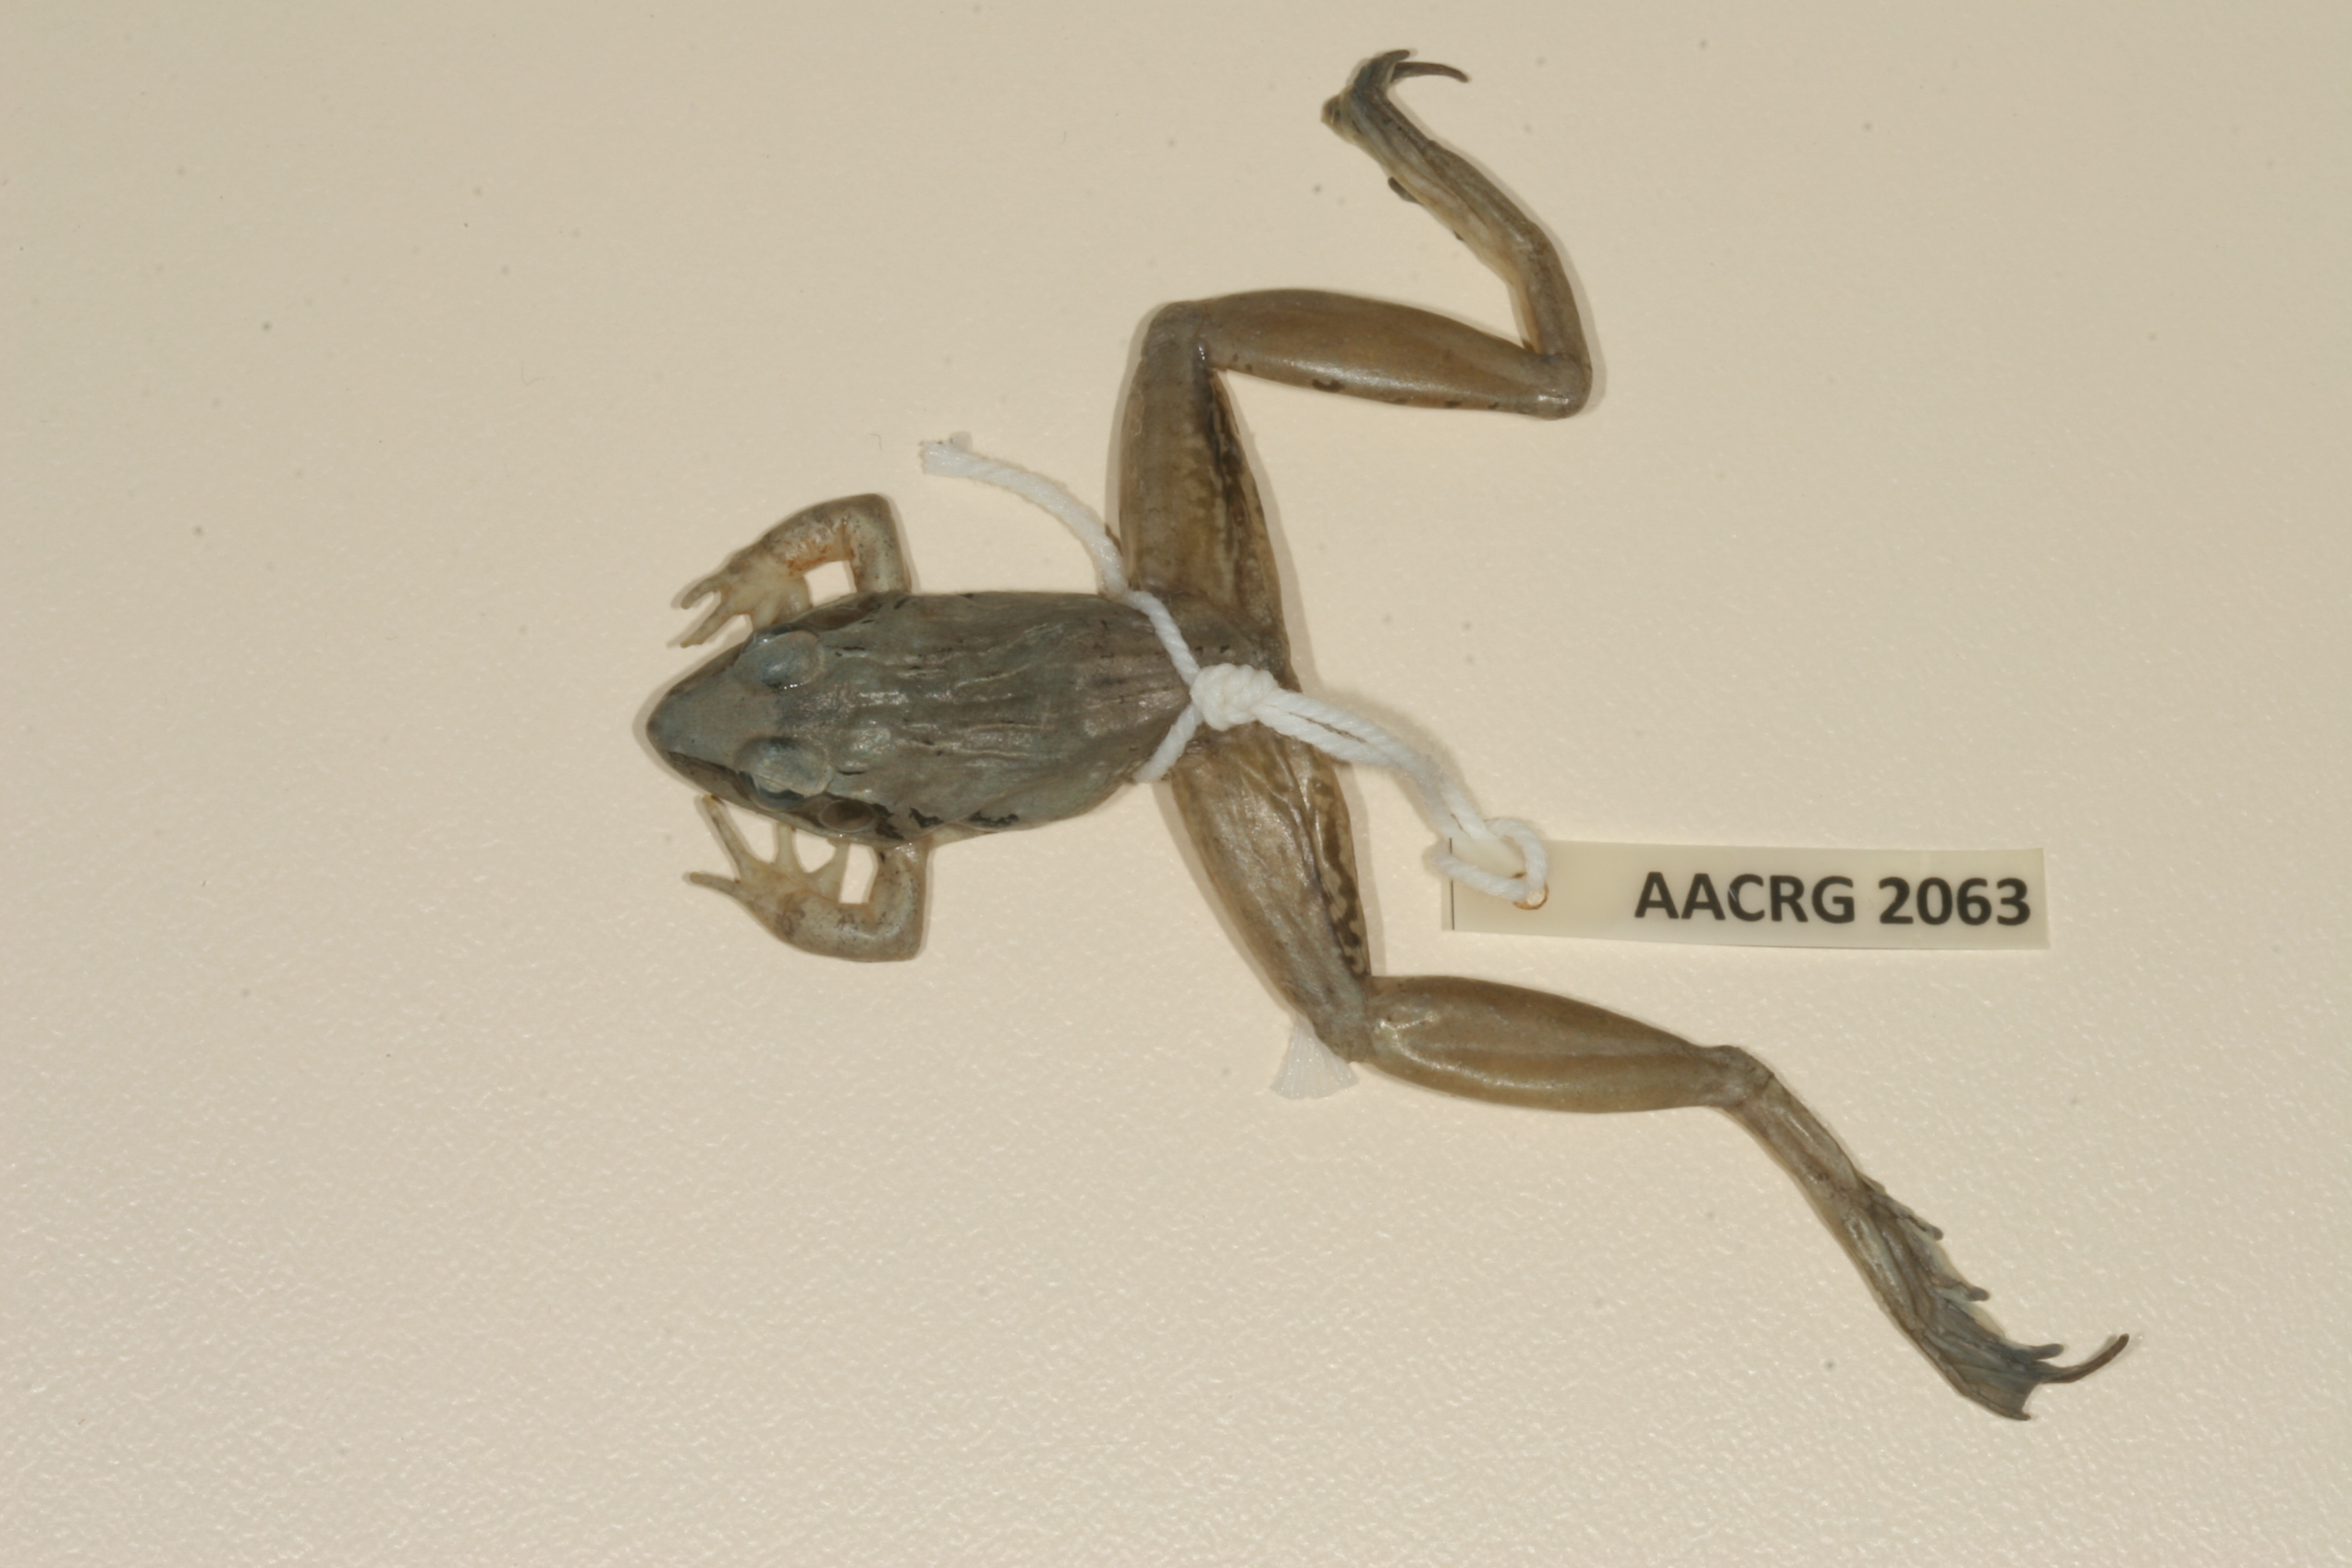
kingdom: Animalia
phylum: Chordata
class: Amphibia
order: Anura
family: Ptychadenidae
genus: Ptychadena
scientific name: Ptychadena anchietae
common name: Anchieta's ridged frog
